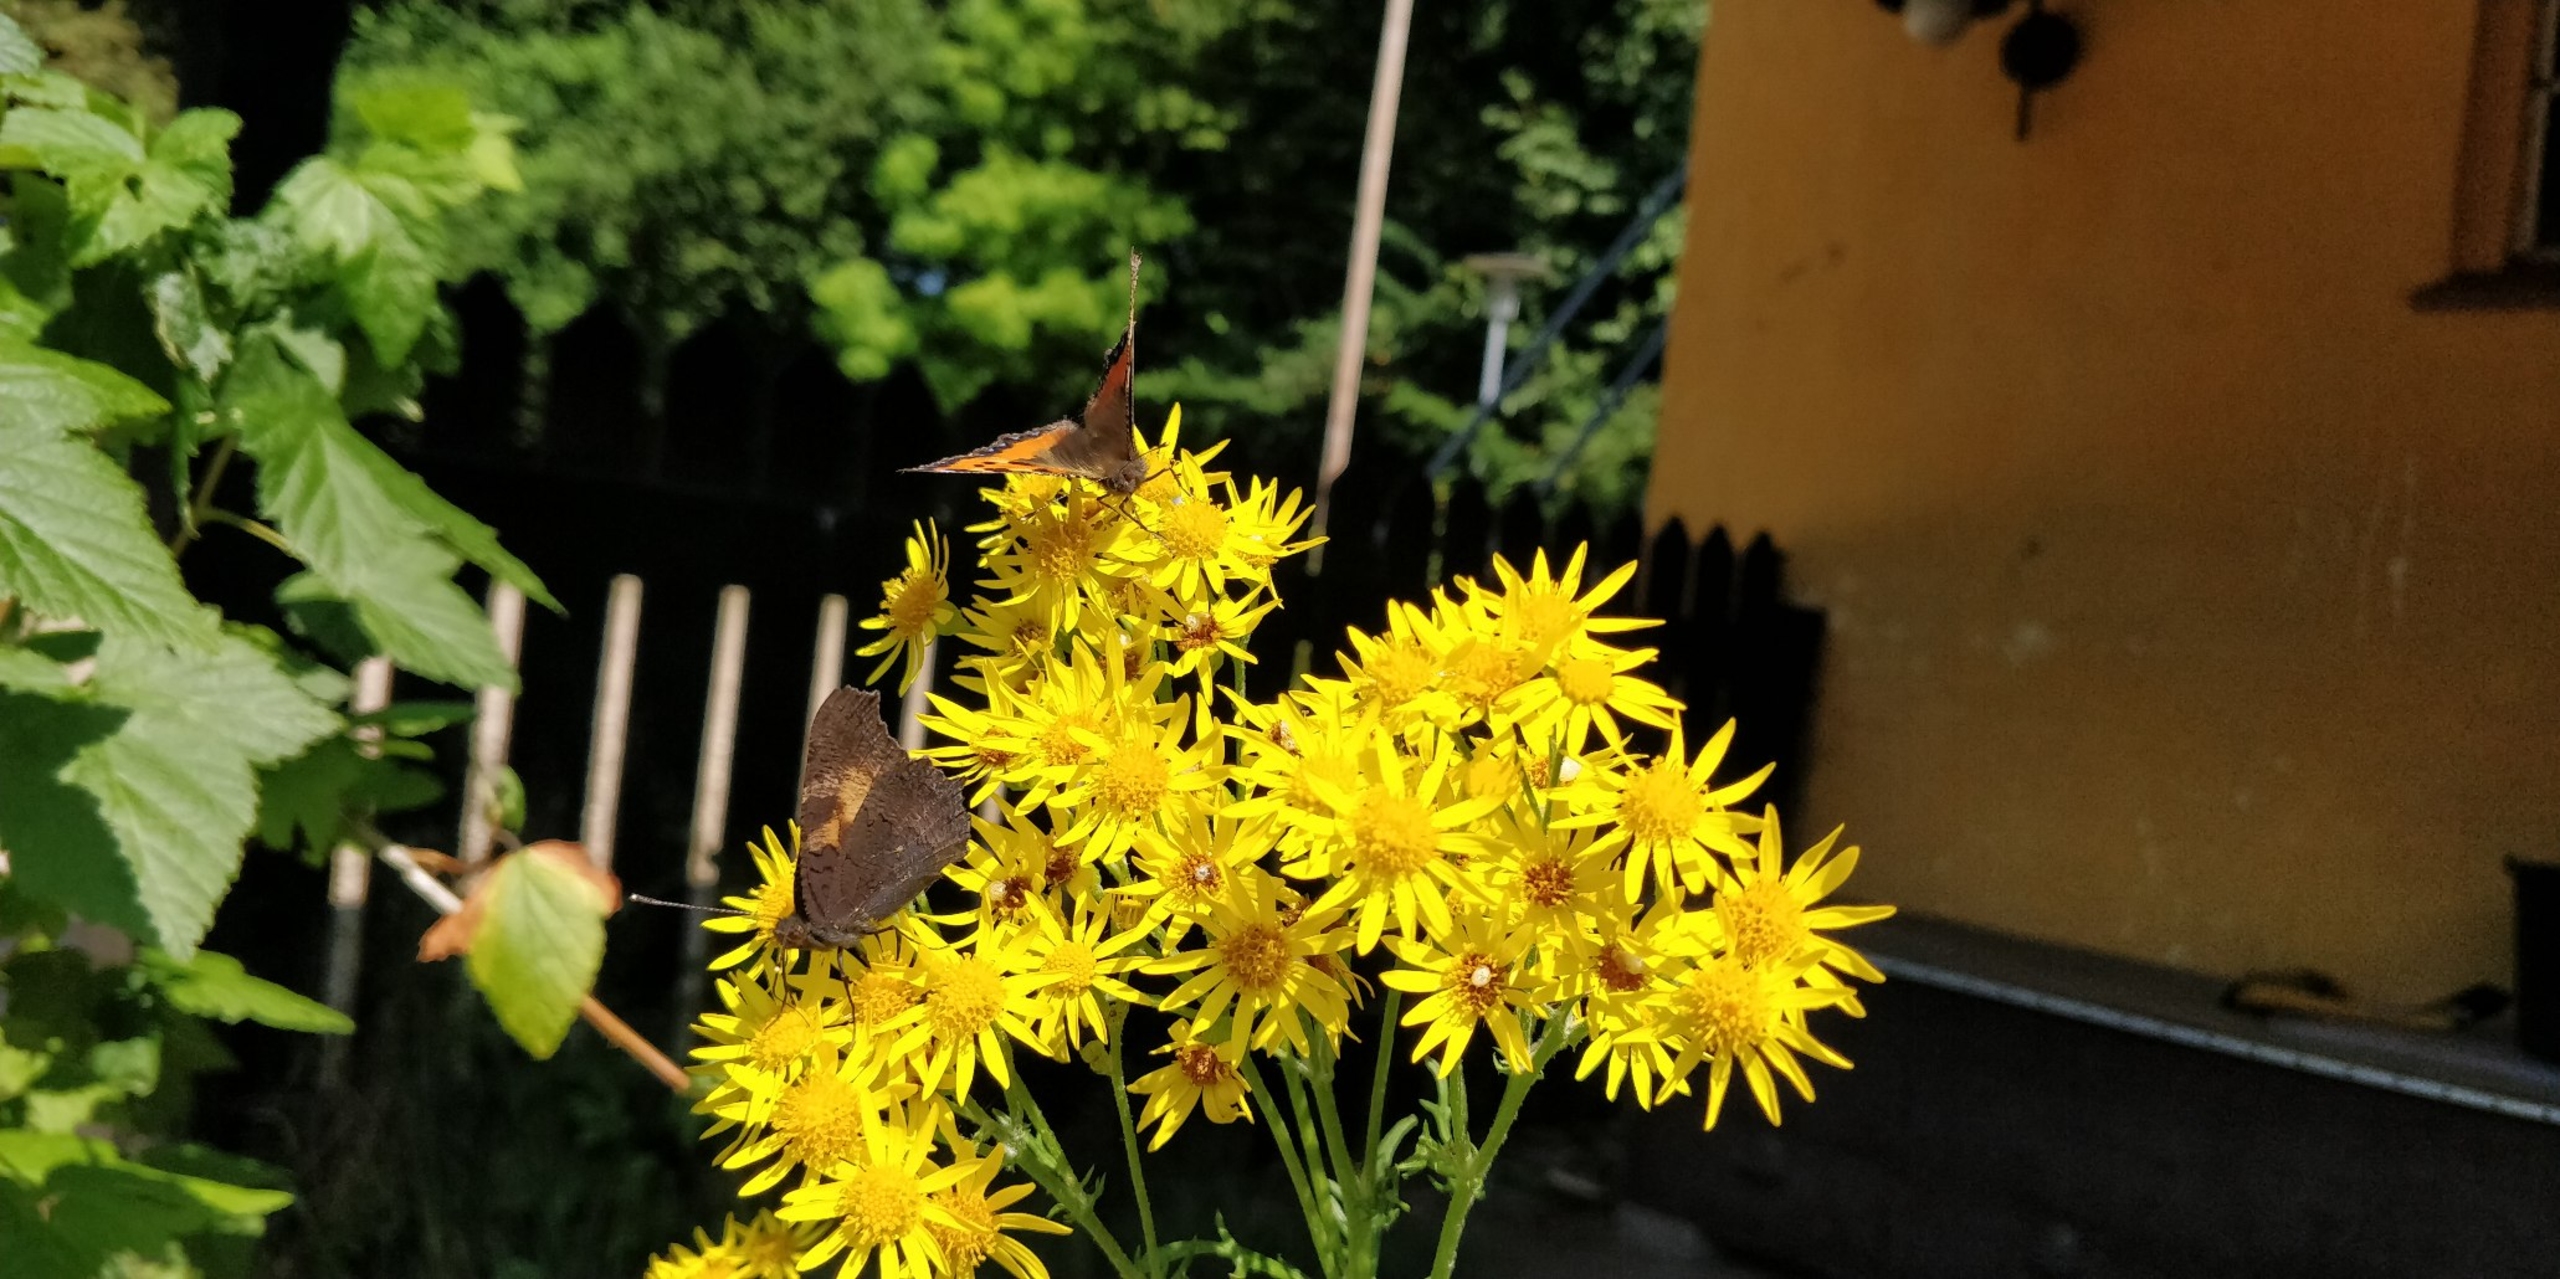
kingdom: Animalia
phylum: Arthropoda
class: Insecta
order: Lepidoptera
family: Nymphalidae
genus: Aglais
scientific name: Aglais urticae
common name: Nældens takvinge
